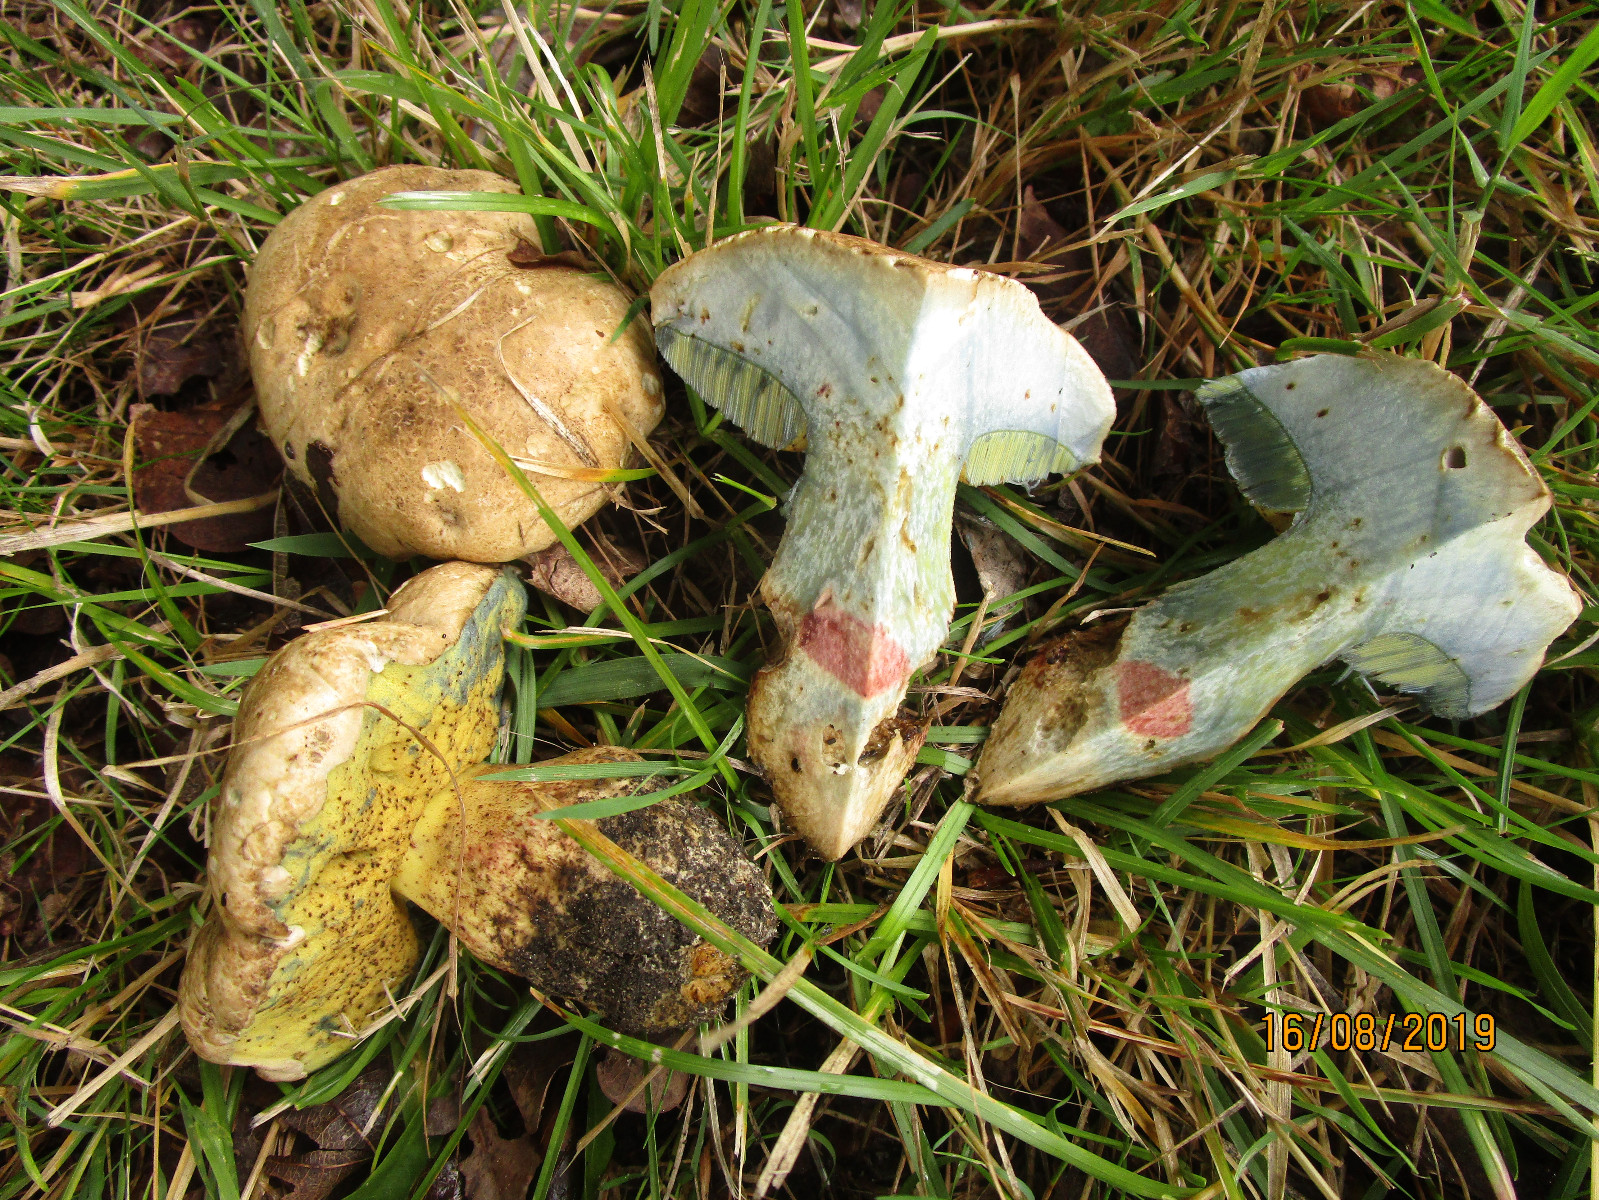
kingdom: Fungi
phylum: Basidiomycota
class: Agaricomycetes
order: Boletales
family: Boletaceae
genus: Caloboletus
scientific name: Caloboletus radicans
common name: rod-rørhat
